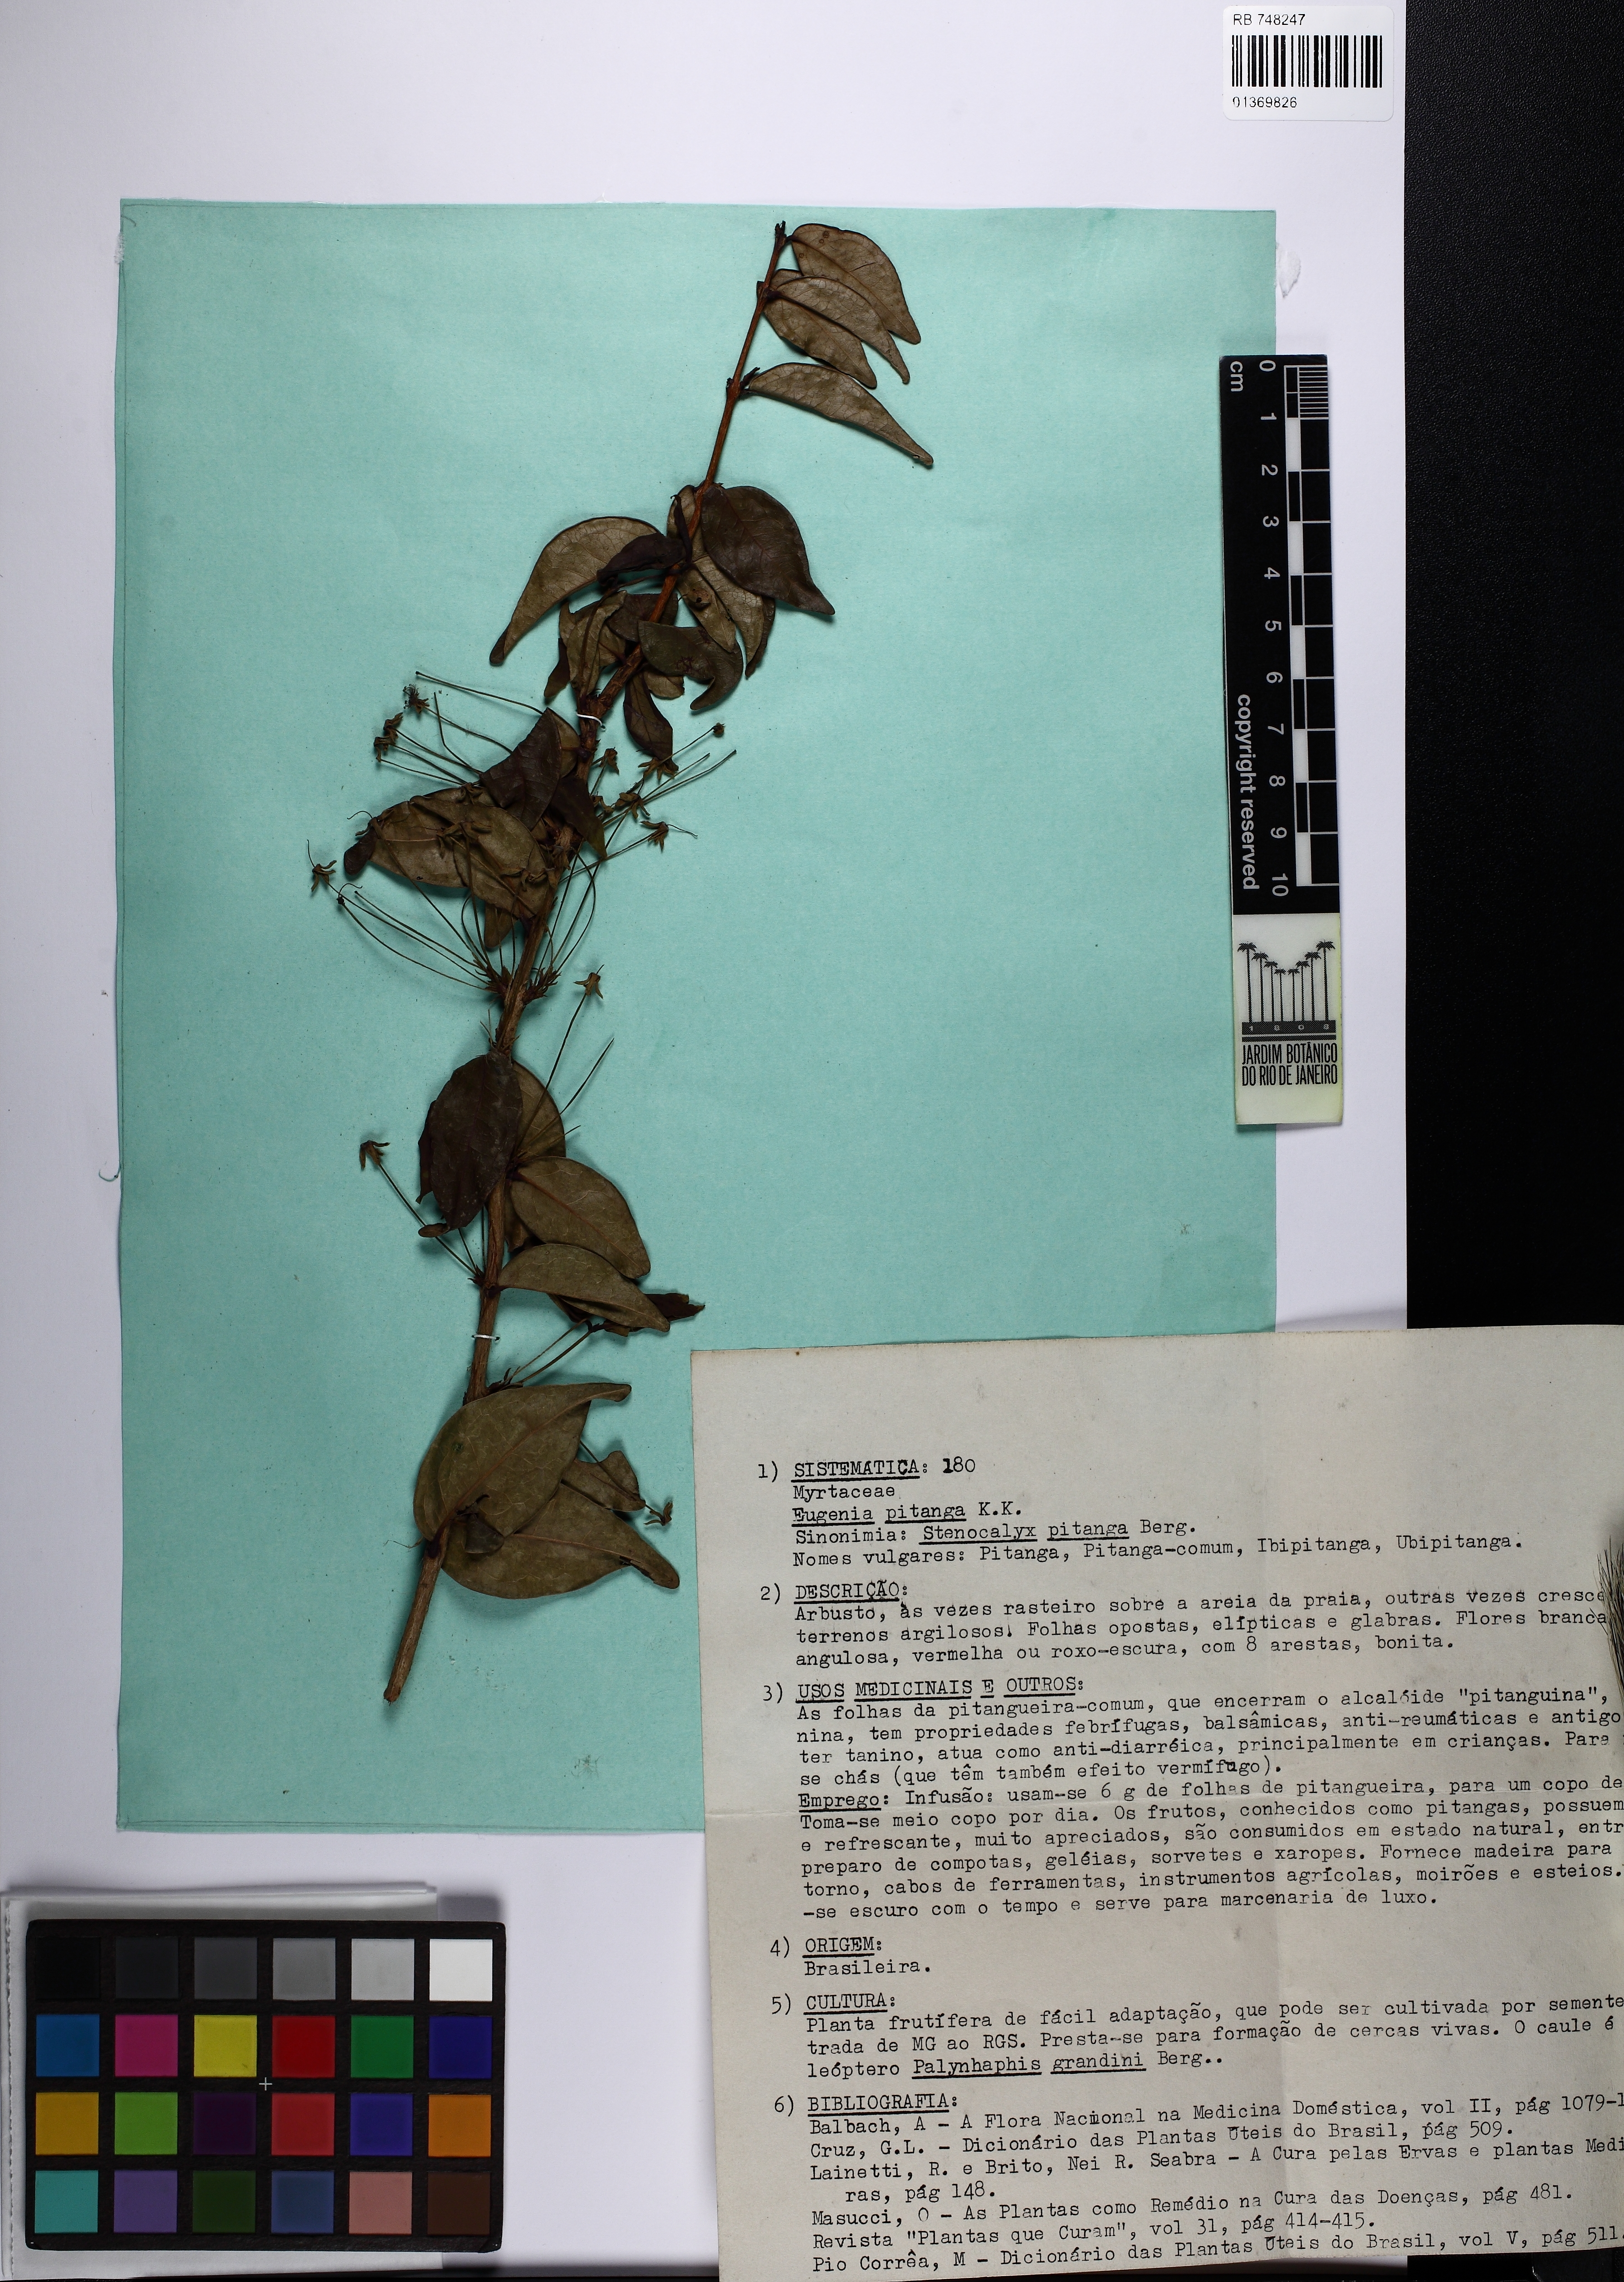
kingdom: Plantae
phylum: Tracheophyta
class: Magnoliopsida
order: Myrtales
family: Myrtaceae
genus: Eugenia
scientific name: Eugenia pitanga
